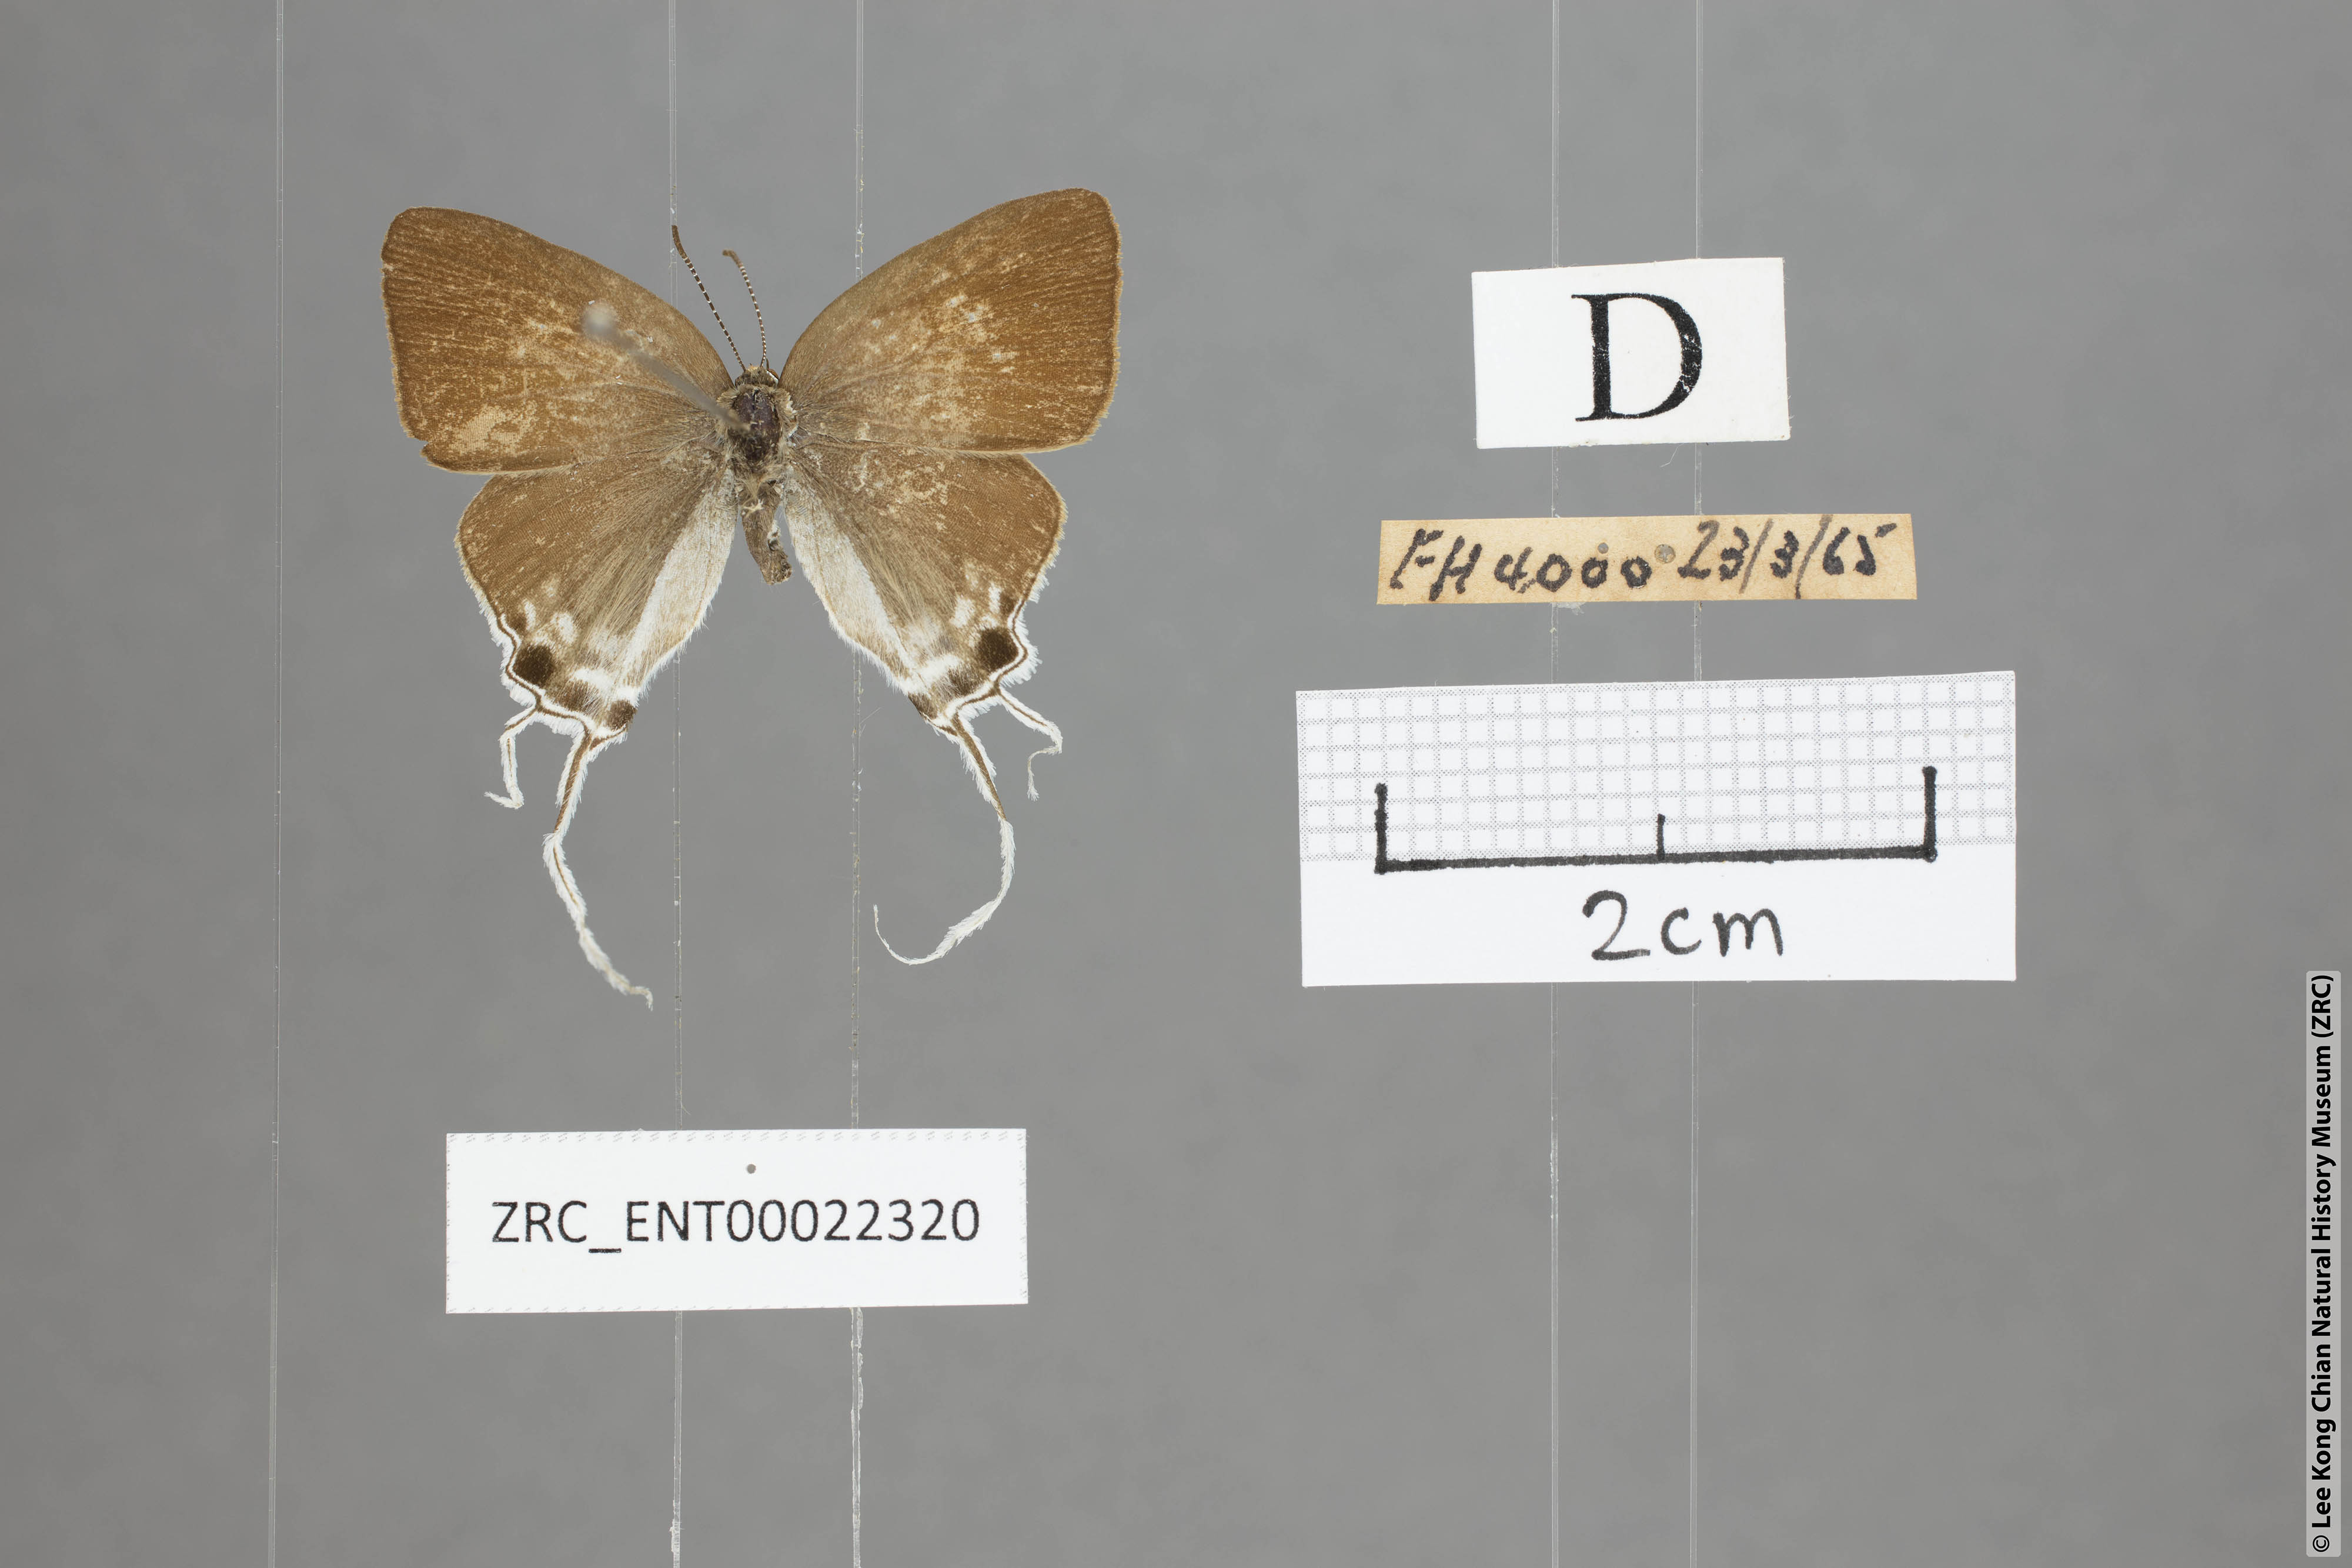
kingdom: Animalia
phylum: Arthropoda
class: Insecta
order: Lepidoptera
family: Lycaenidae
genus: Zeltus
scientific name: Zeltus amasa
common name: Fluffy tit
